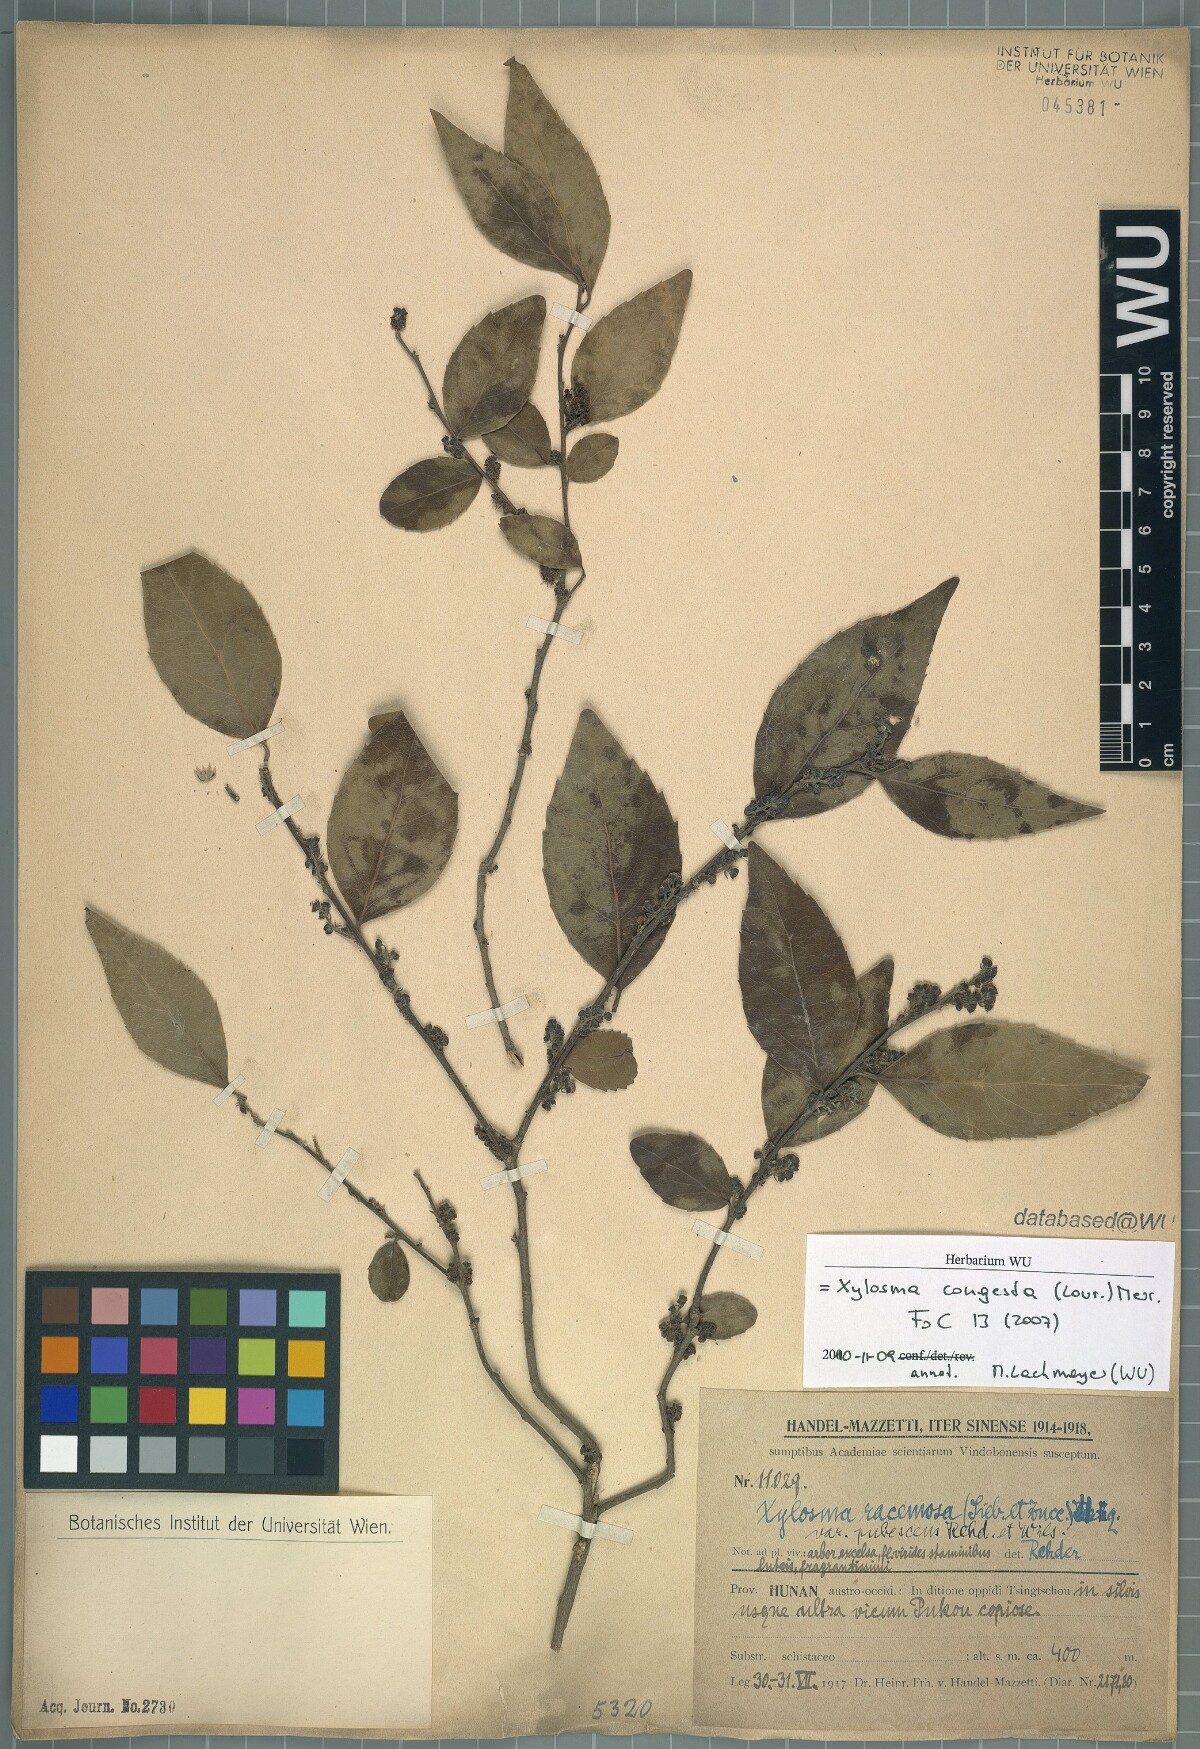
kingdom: Plantae
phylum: Tracheophyta
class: Magnoliopsida
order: Malpighiales
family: Salicaceae
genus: Xylosma
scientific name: Xylosma racemosum
